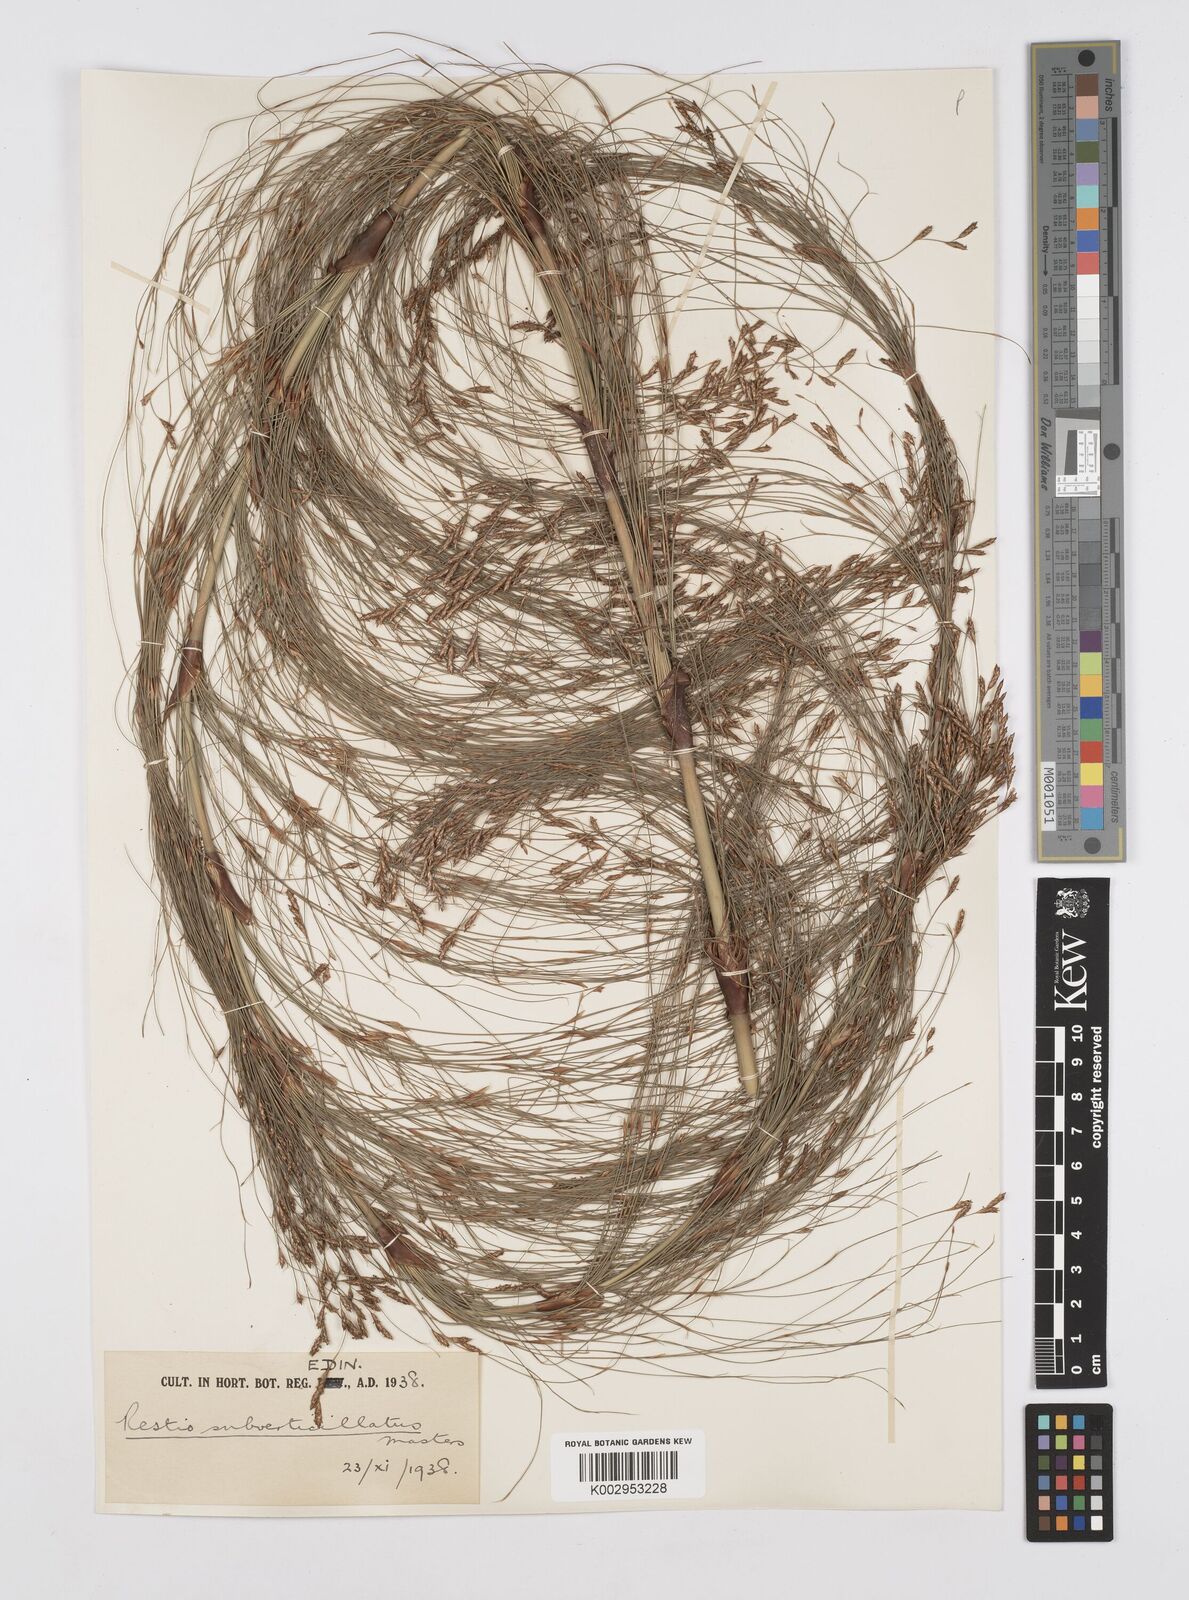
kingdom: Plantae
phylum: Tracheophyta
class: Liliopsida
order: Poales
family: Restionaceae
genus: Restio
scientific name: Restio subverticillatus
